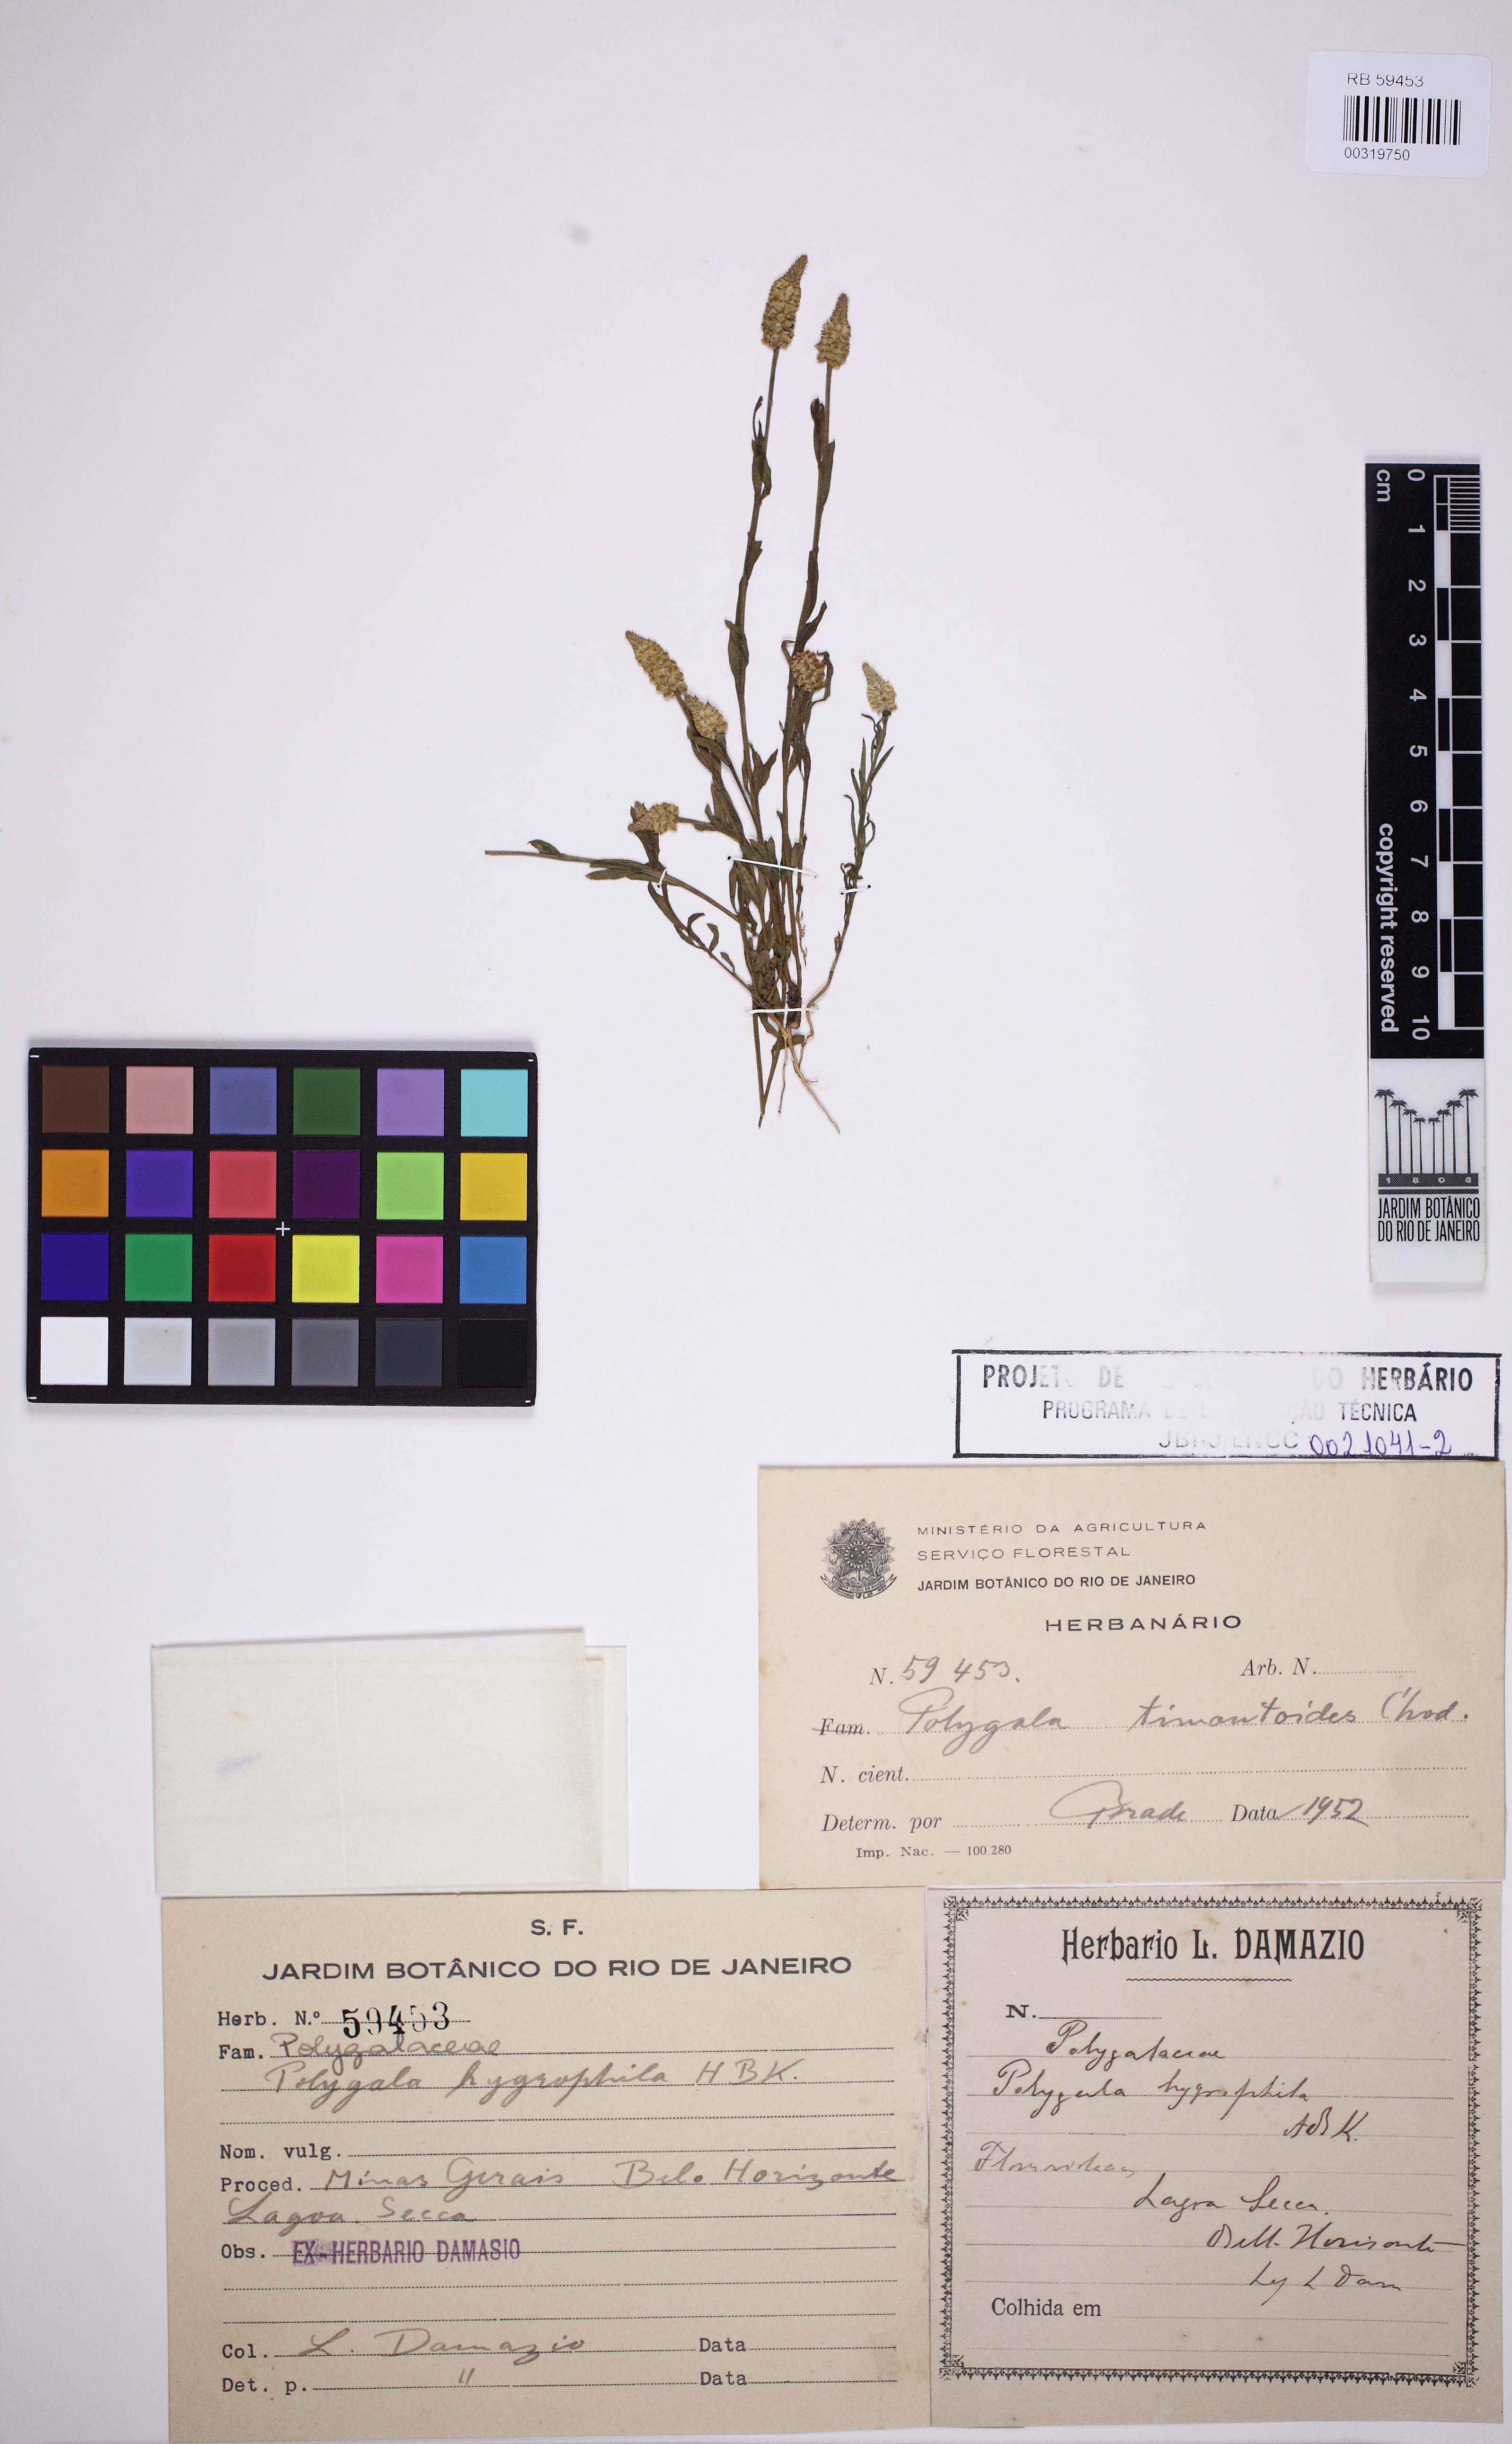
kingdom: Plantae
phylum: Tracheophyta
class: Magnoliopsida
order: Fabales
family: Polygalaceae
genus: Polygala
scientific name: Polygala timoutoides
